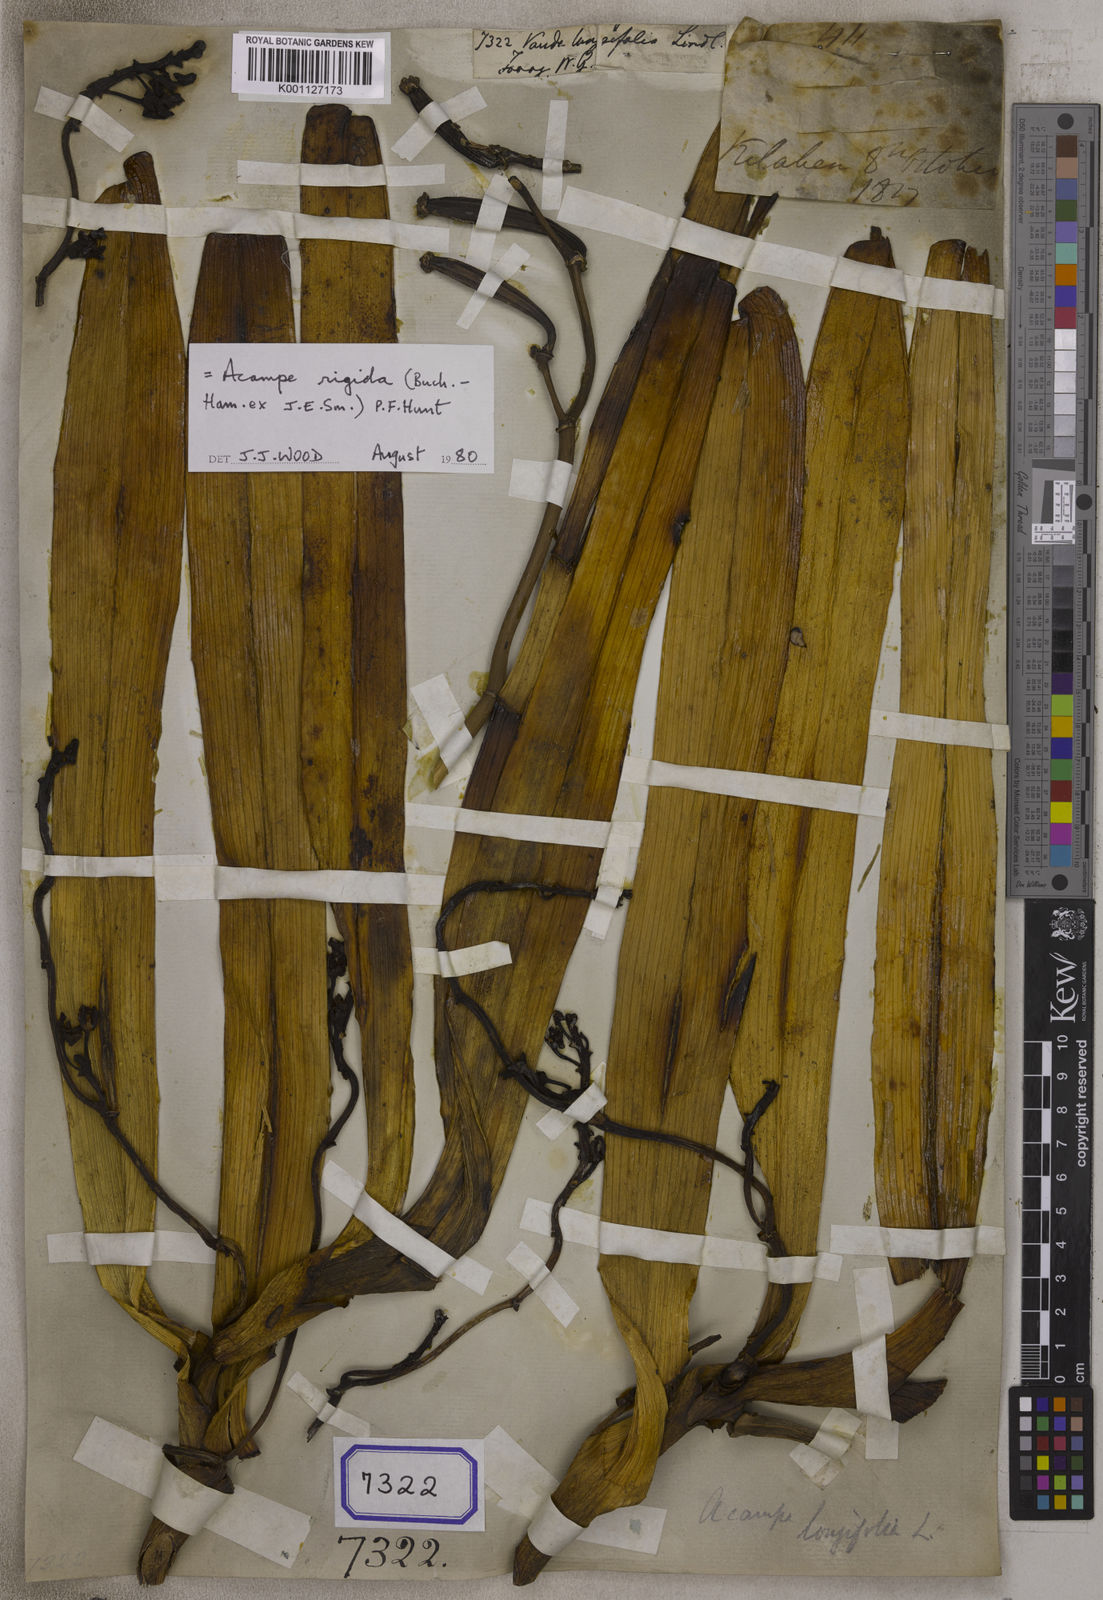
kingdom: Plantae
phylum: Tracheophyta
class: Liliopsida
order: Asparagales
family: Orchidaceae
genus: Acampe
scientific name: Acampe praemorsa
